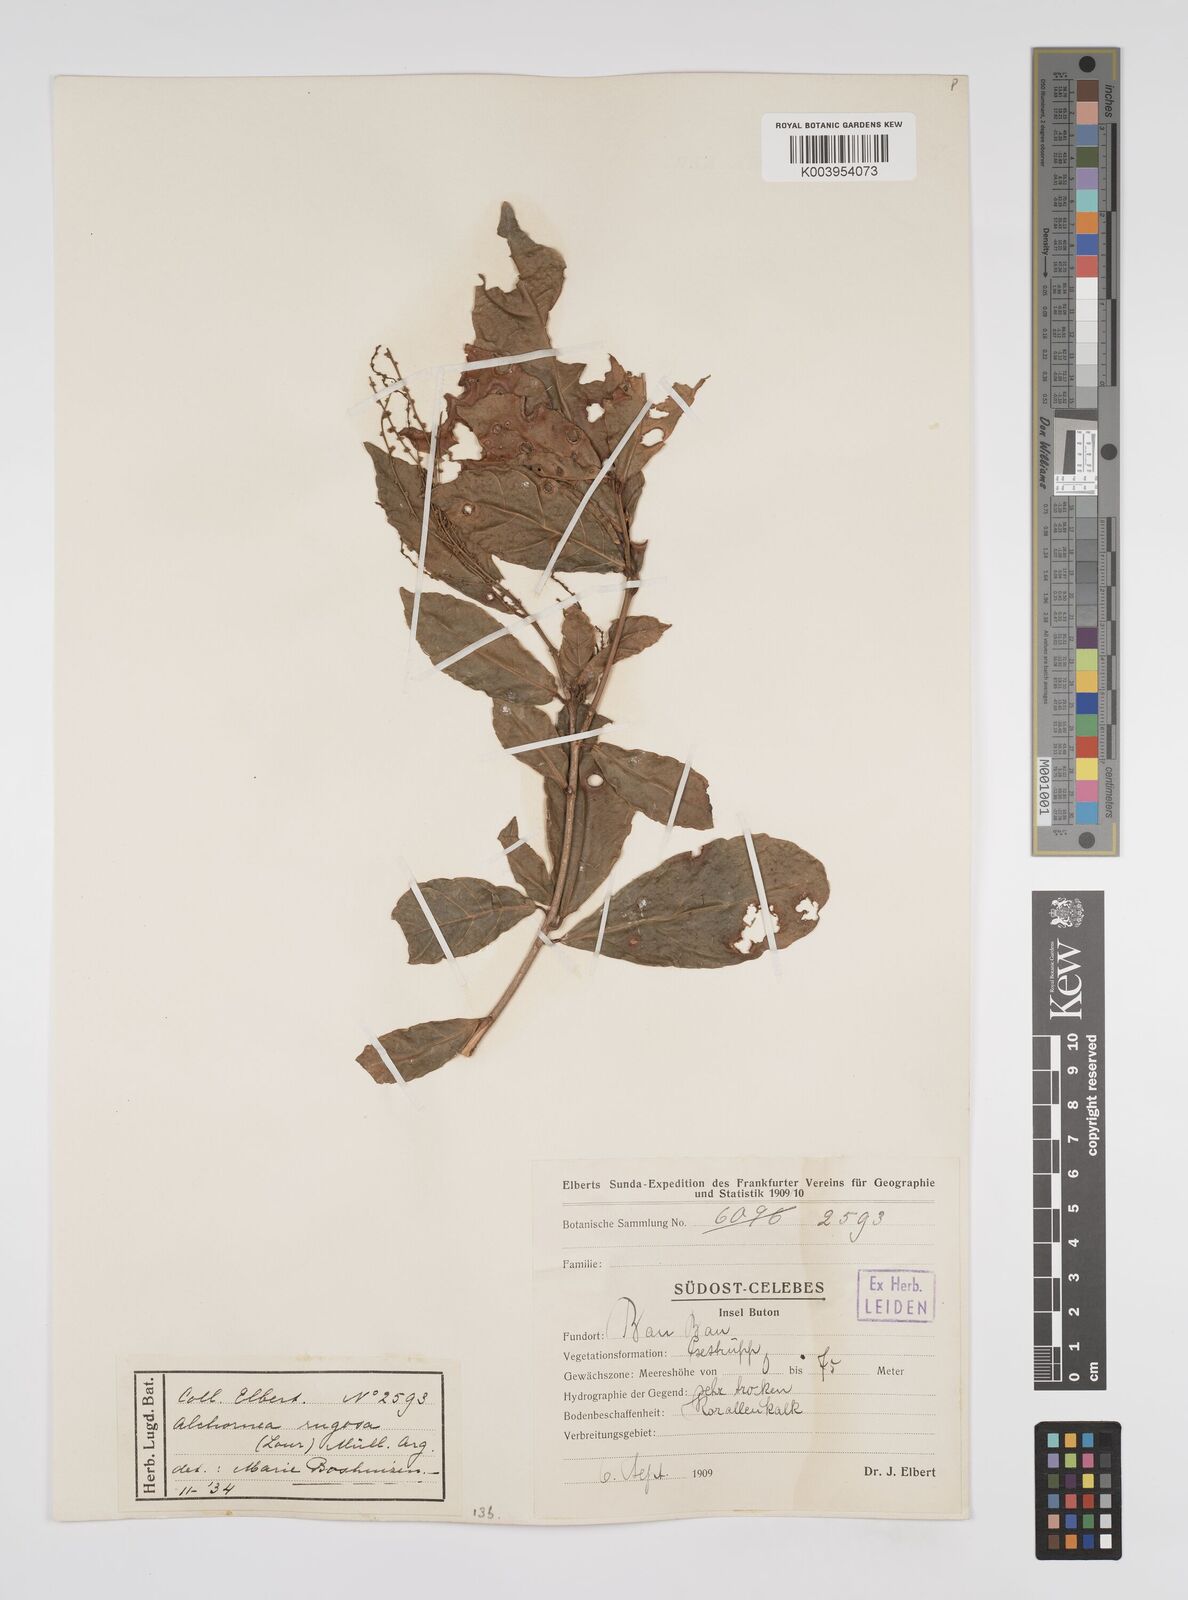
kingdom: Plantae
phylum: Tracheophyta
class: Magnoliopsida
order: Malpighiales
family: Euphorbiaceae
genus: Alchornea
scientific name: Alchornea rugosa
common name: Alchorntree
